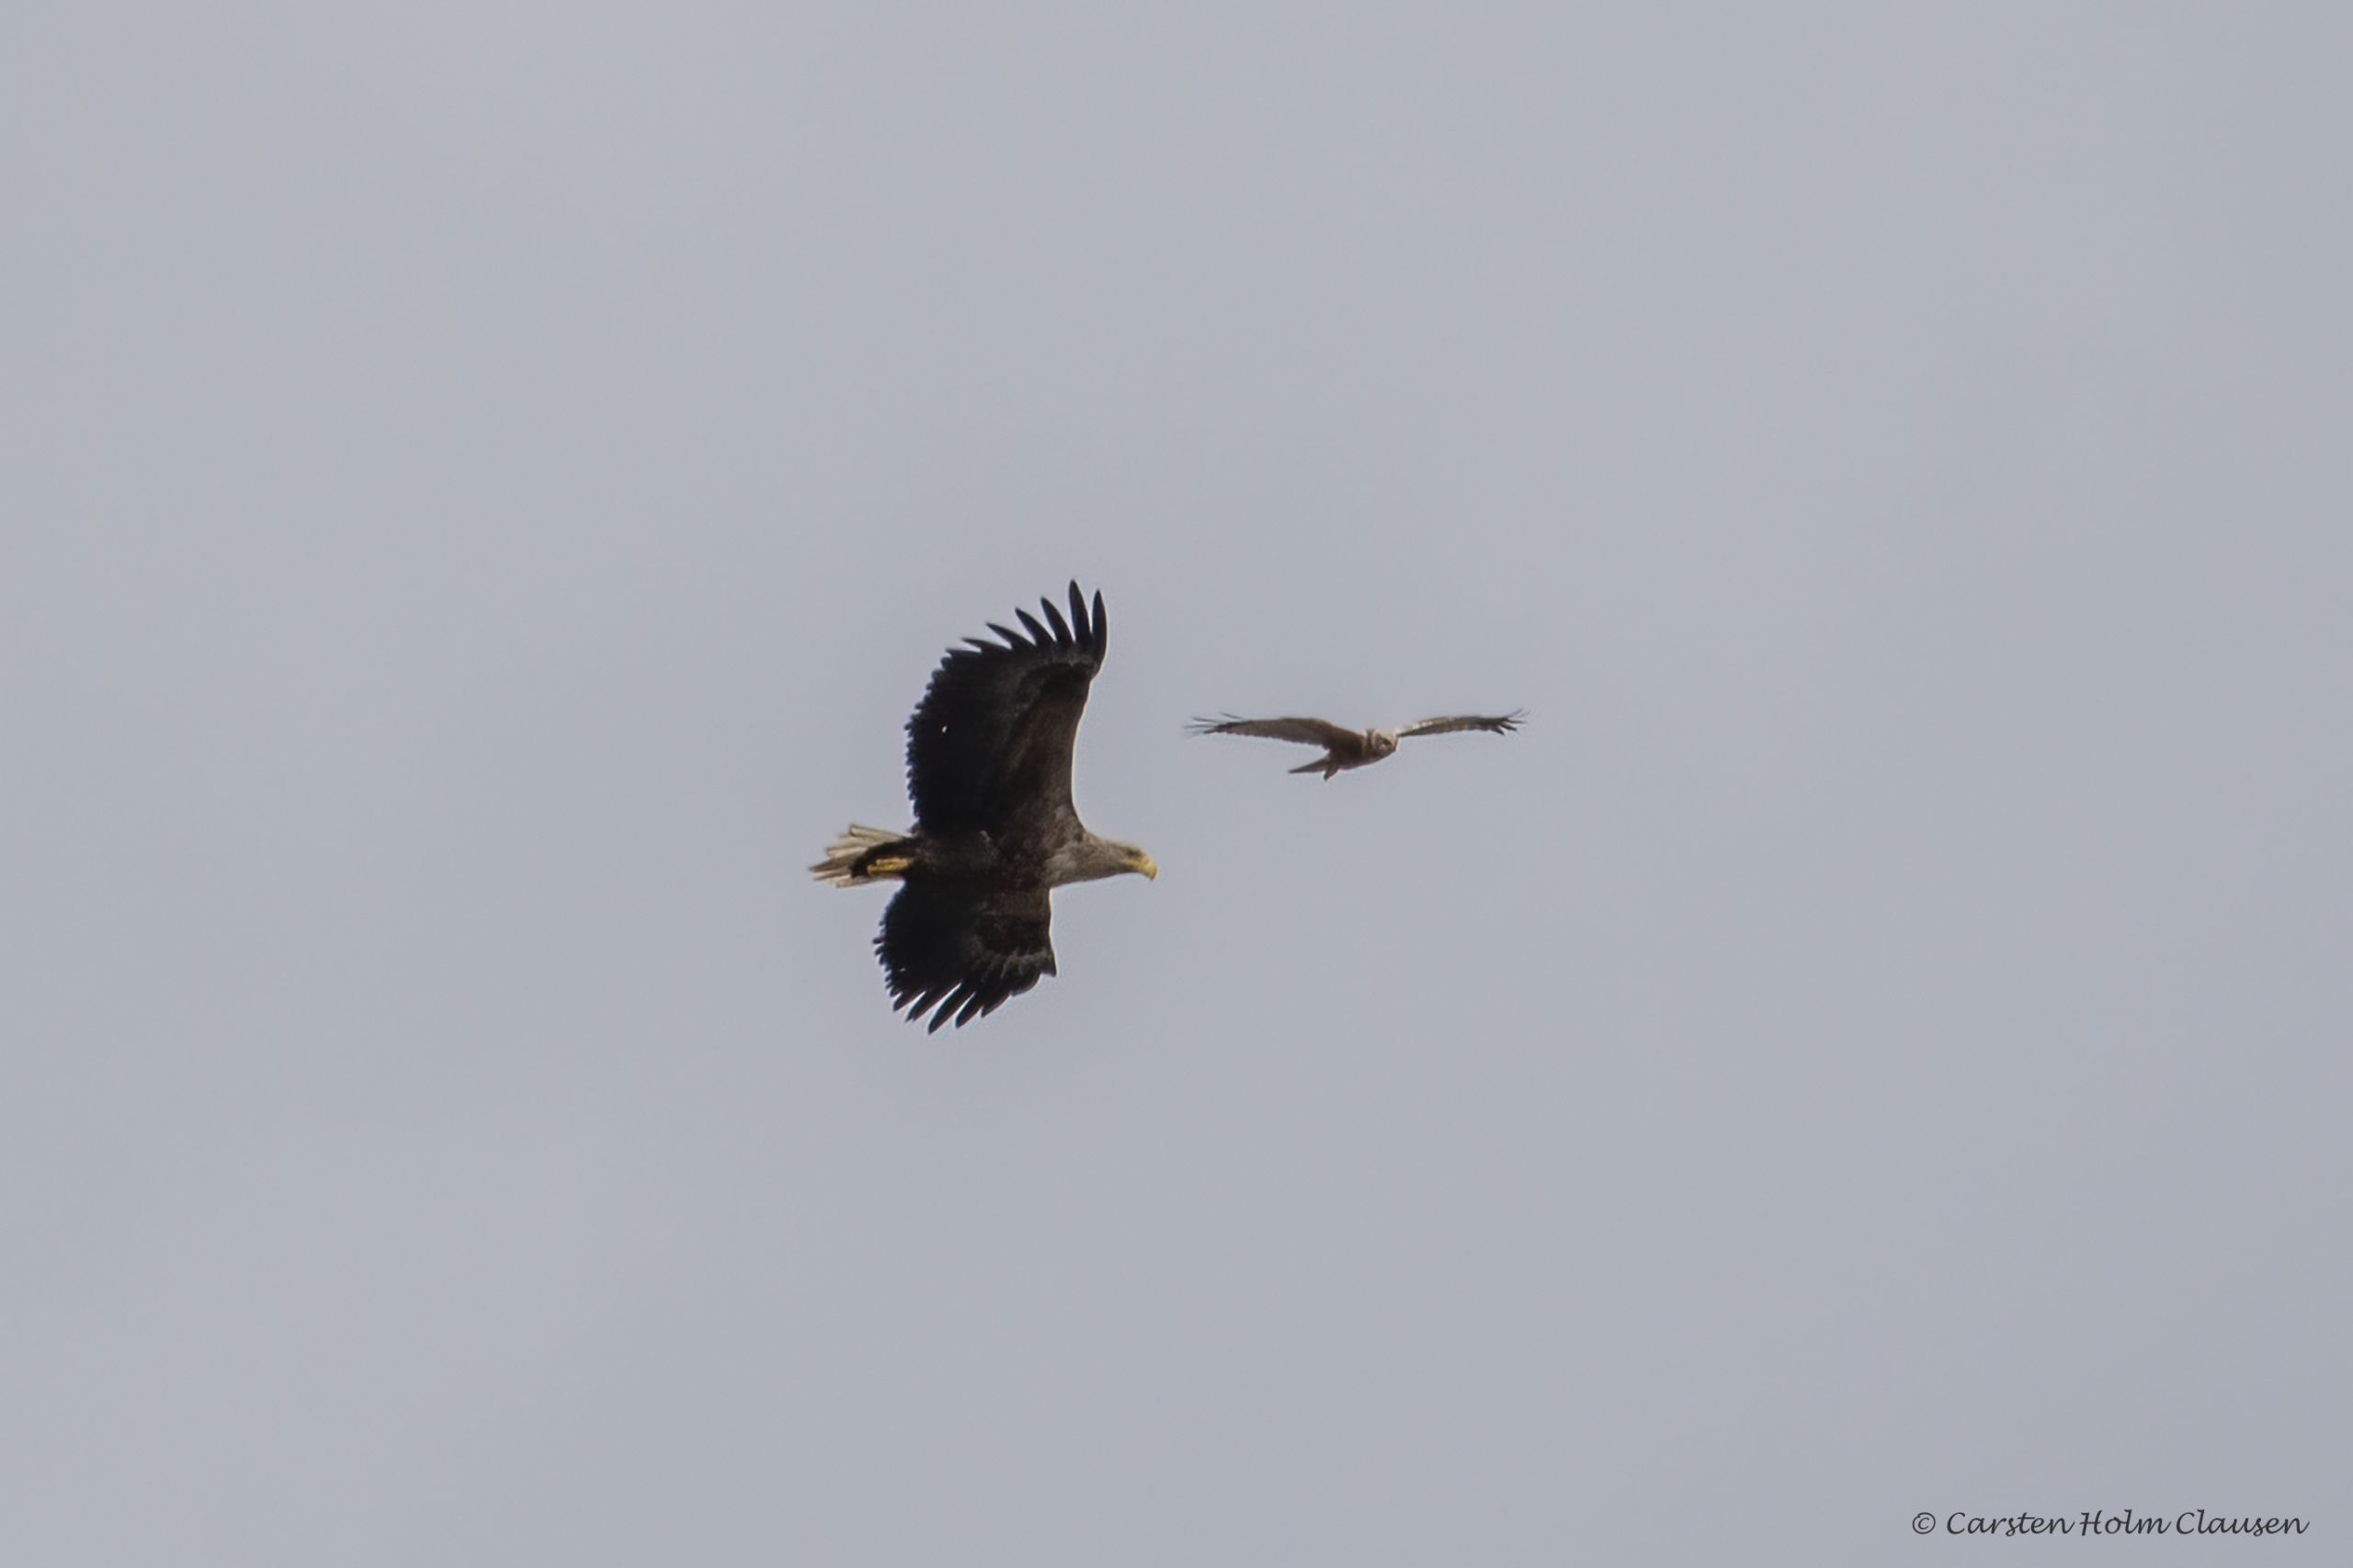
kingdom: Animalia
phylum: Chordata
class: Aves
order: Accipitriformes
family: Accipitridae
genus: Haliaeetus
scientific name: Haliaeetus albicilla
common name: Havørn
